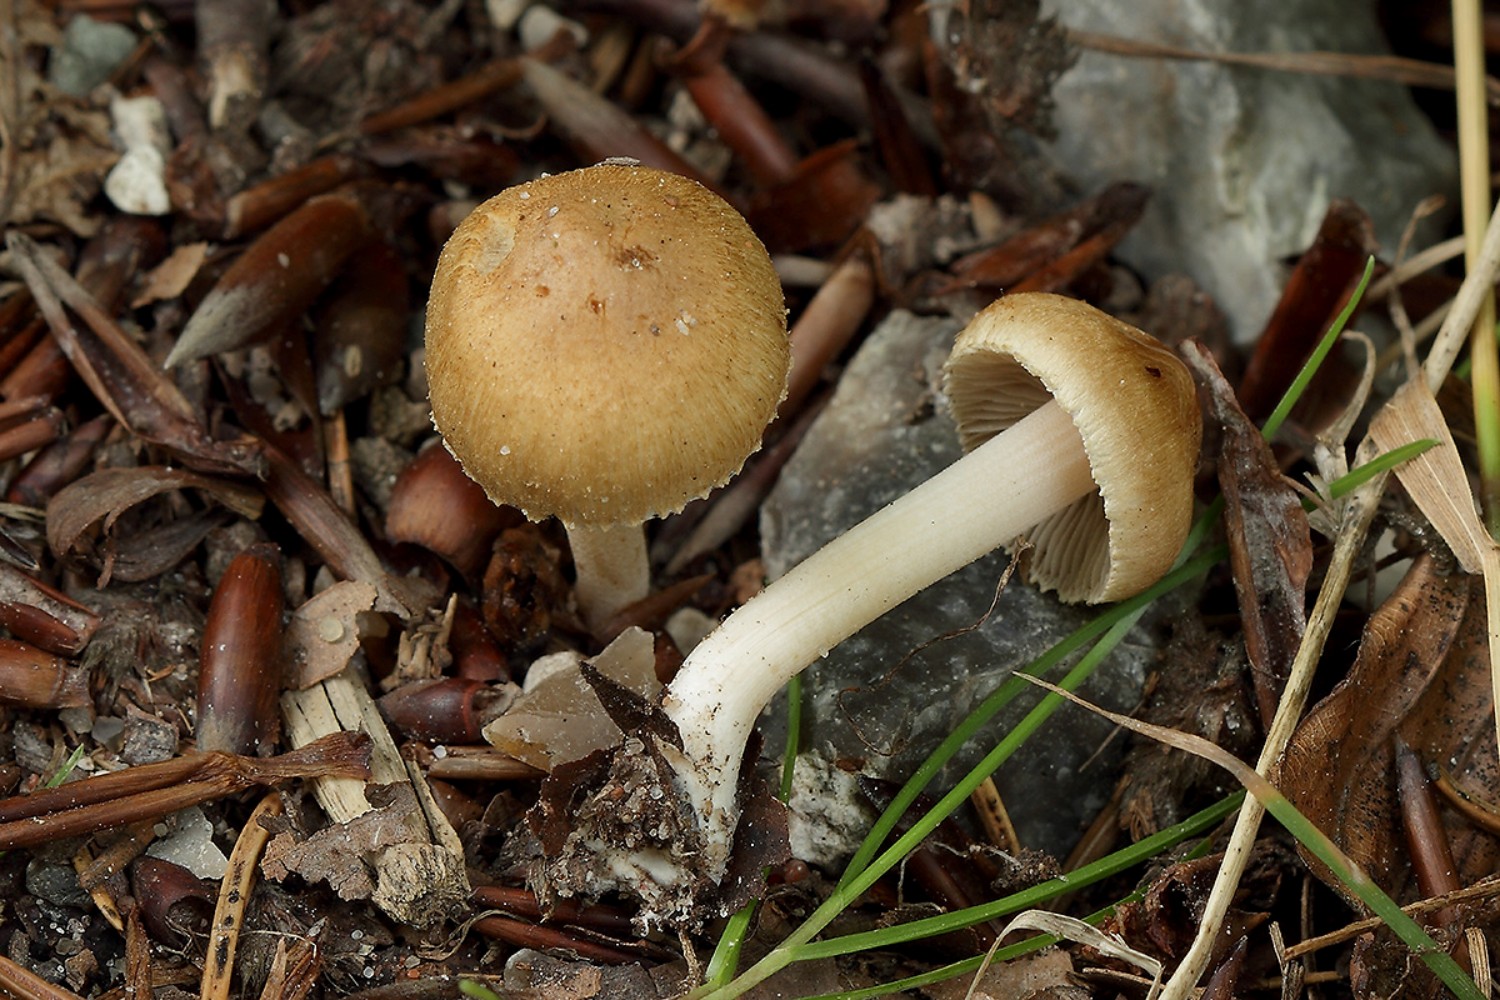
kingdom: Fungi
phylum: Basidiomycota
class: Agaricomycetes
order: Agaricales
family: Inocybaceae
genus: Inocybe
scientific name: Inocybe hirtella
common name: mandel-trævlhat
